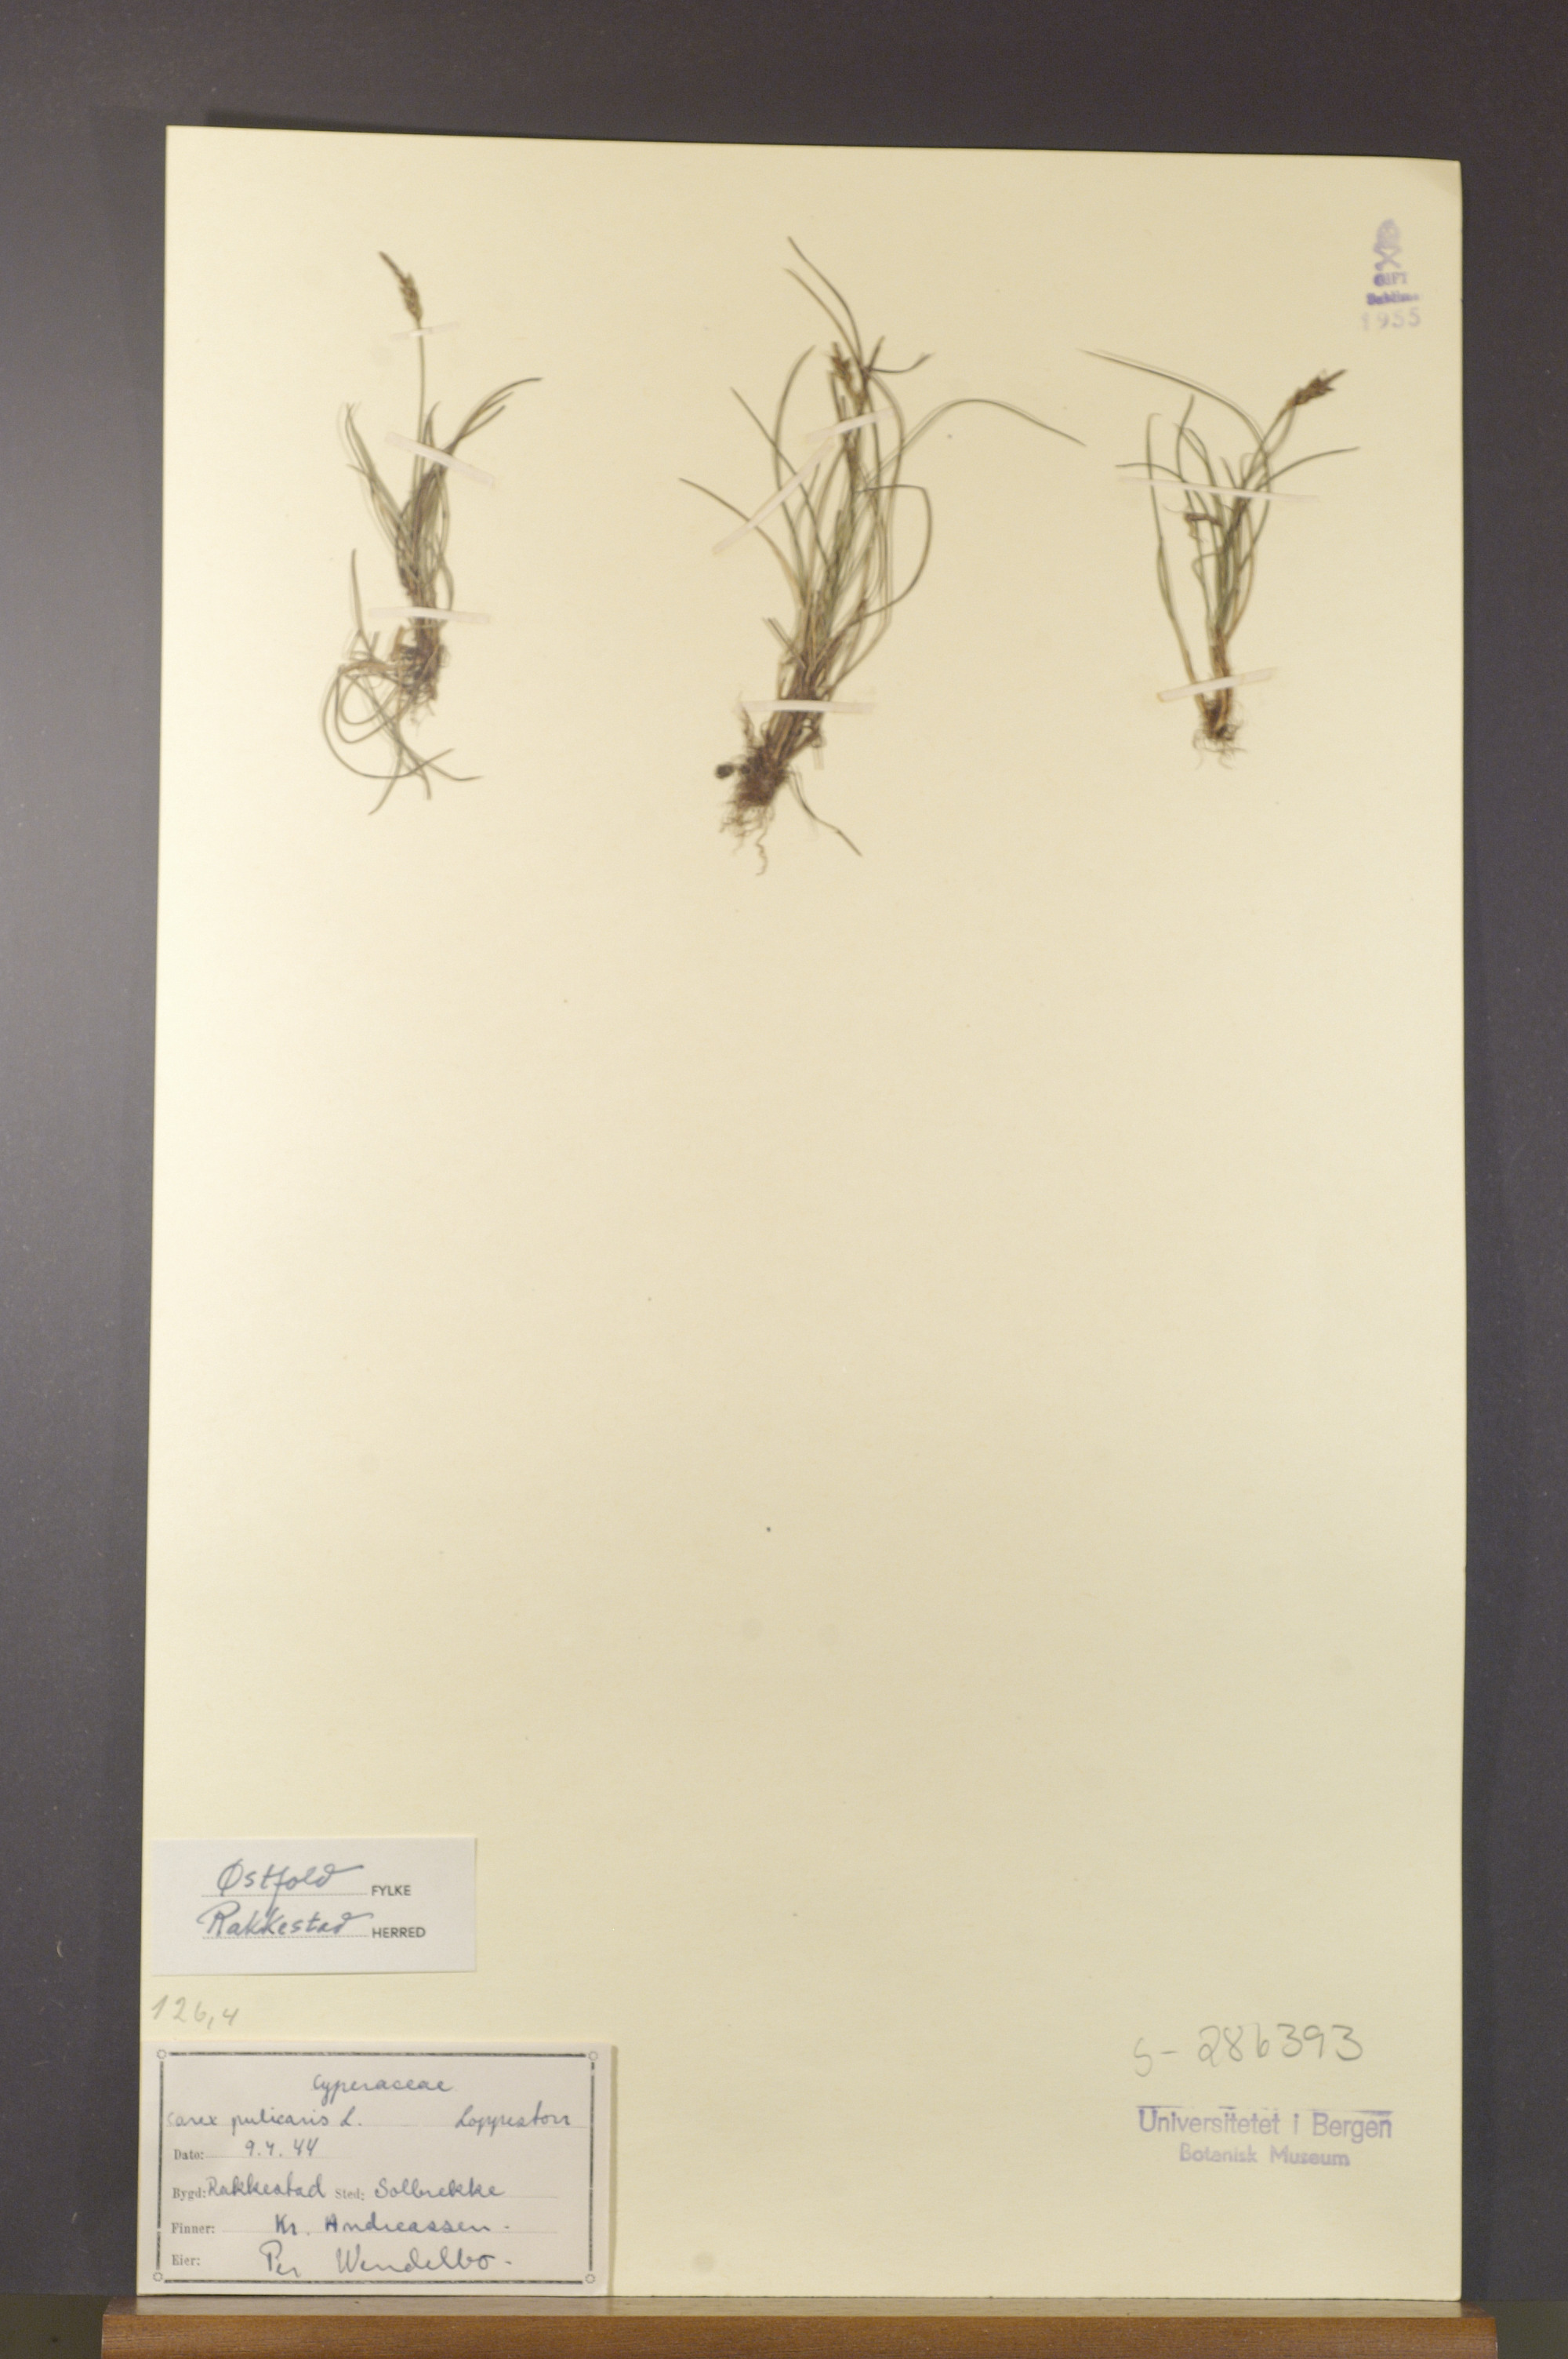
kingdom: Plantae
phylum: Tracheophyta
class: Liliopsida
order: Poales
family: Cyperaceae
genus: Carex
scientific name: Carex pulicaris
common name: Flea sedge
